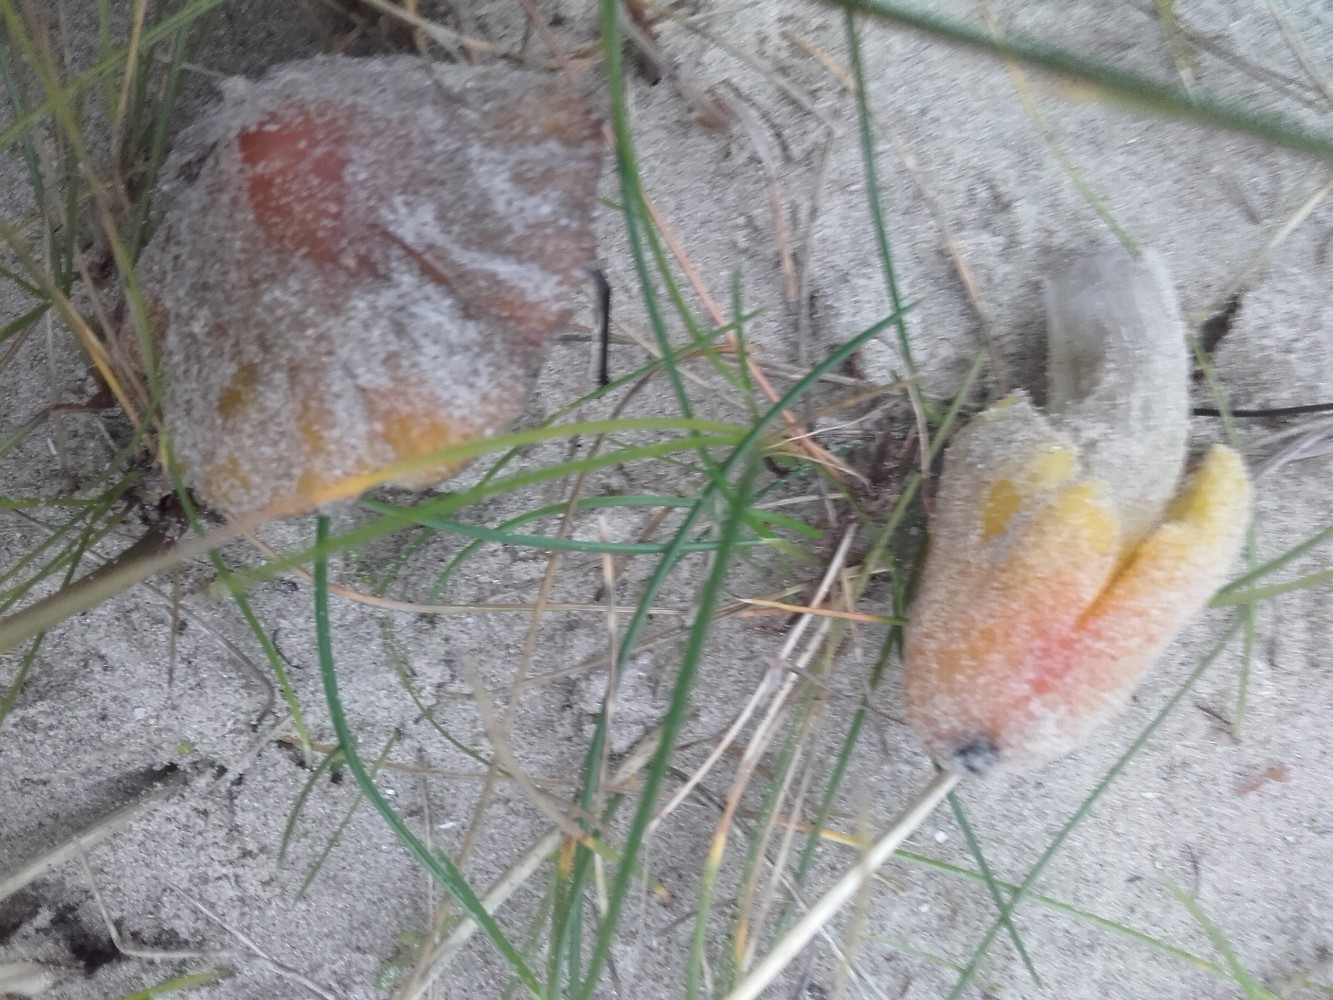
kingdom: Fungi
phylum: Basidiomycota
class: Agaricomycetes
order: Agaricales
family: Hygrophoraceae
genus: Hygrocybe
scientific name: Hygrocybe conicoides
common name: klit-vokshat
